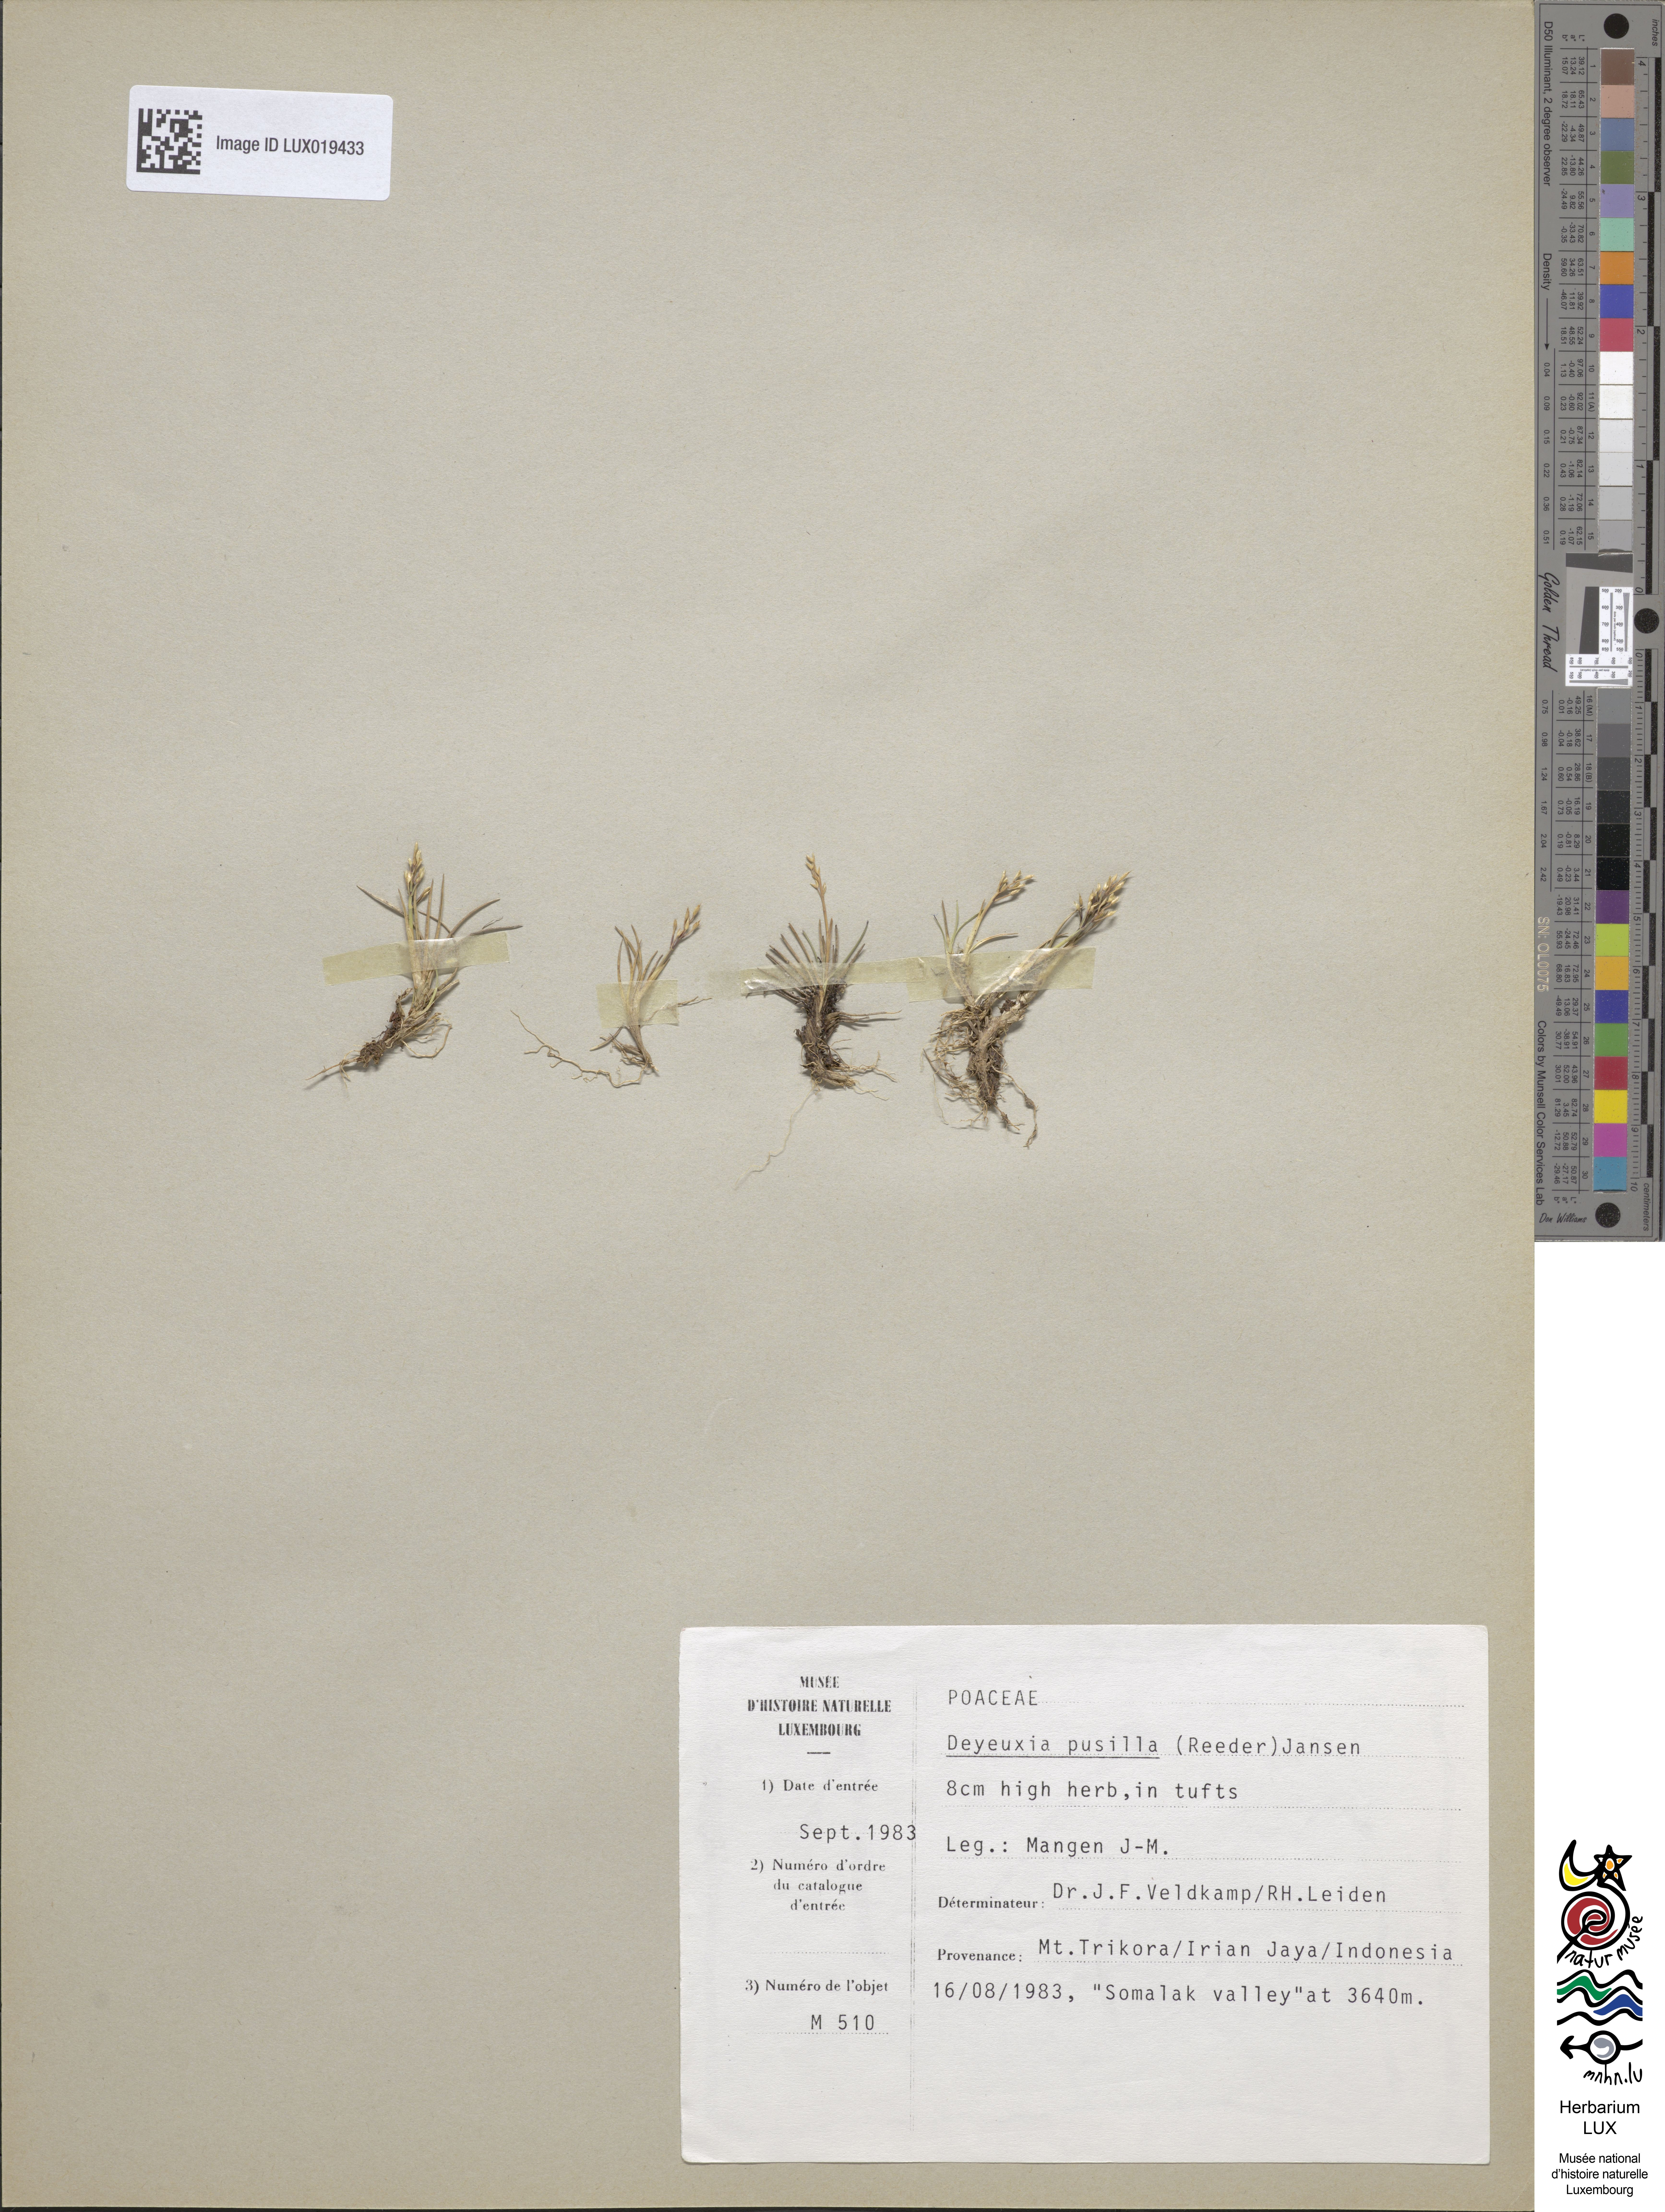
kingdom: Plantae
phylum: Tracheophyta
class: Liliopsida
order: Poales
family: Poaceae
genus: Calamagrostis
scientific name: Calamagrostis pusilla
